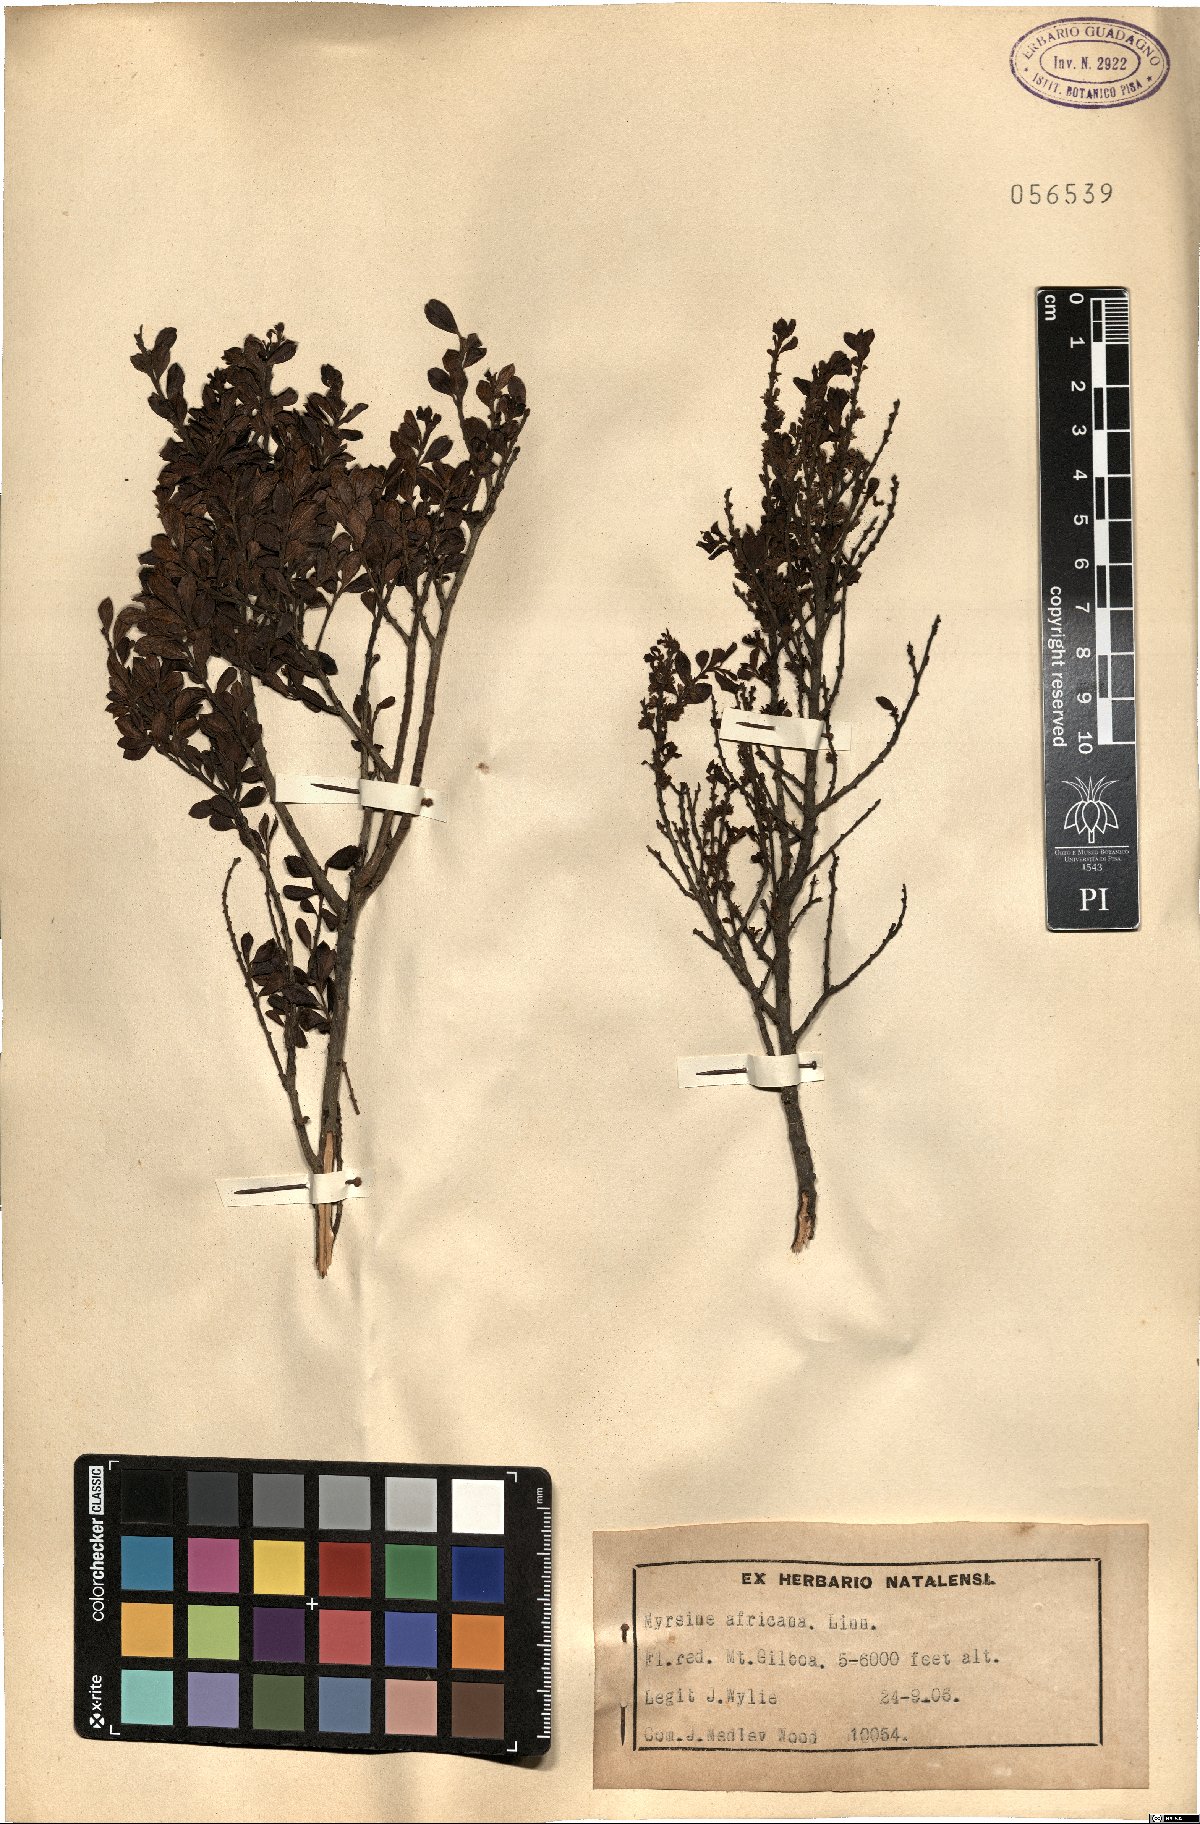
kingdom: Plantae
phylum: Tracheophyta
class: Magnoliopsida
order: Ericales
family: Primulaceae
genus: Myrsine
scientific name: Myrsine africana
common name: African-boxwood
